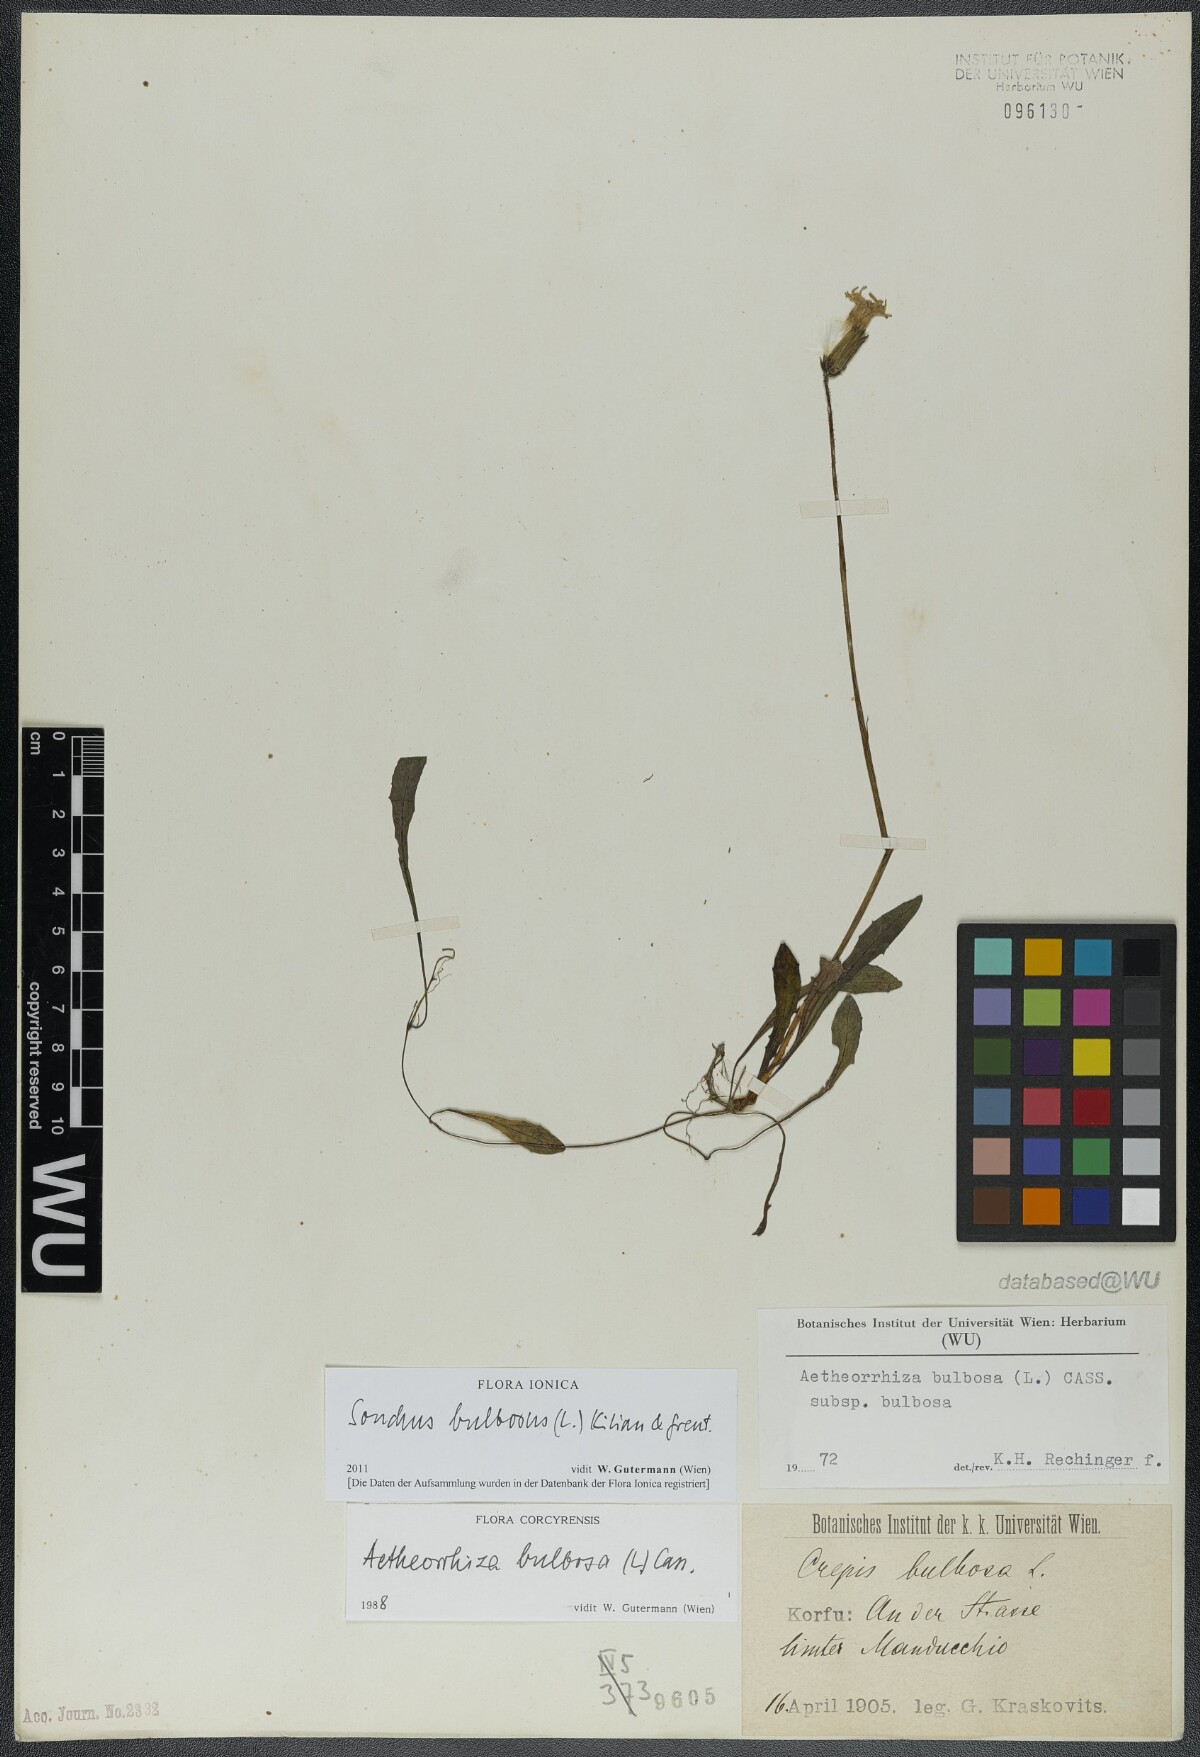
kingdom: Plantae
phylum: Tracheophyta
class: Magnoliopsida
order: Asterales
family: Asteraceae
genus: Aetheorhiza
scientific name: Aetheorhiza bulbosa
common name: Tuberous hawk's-beard
